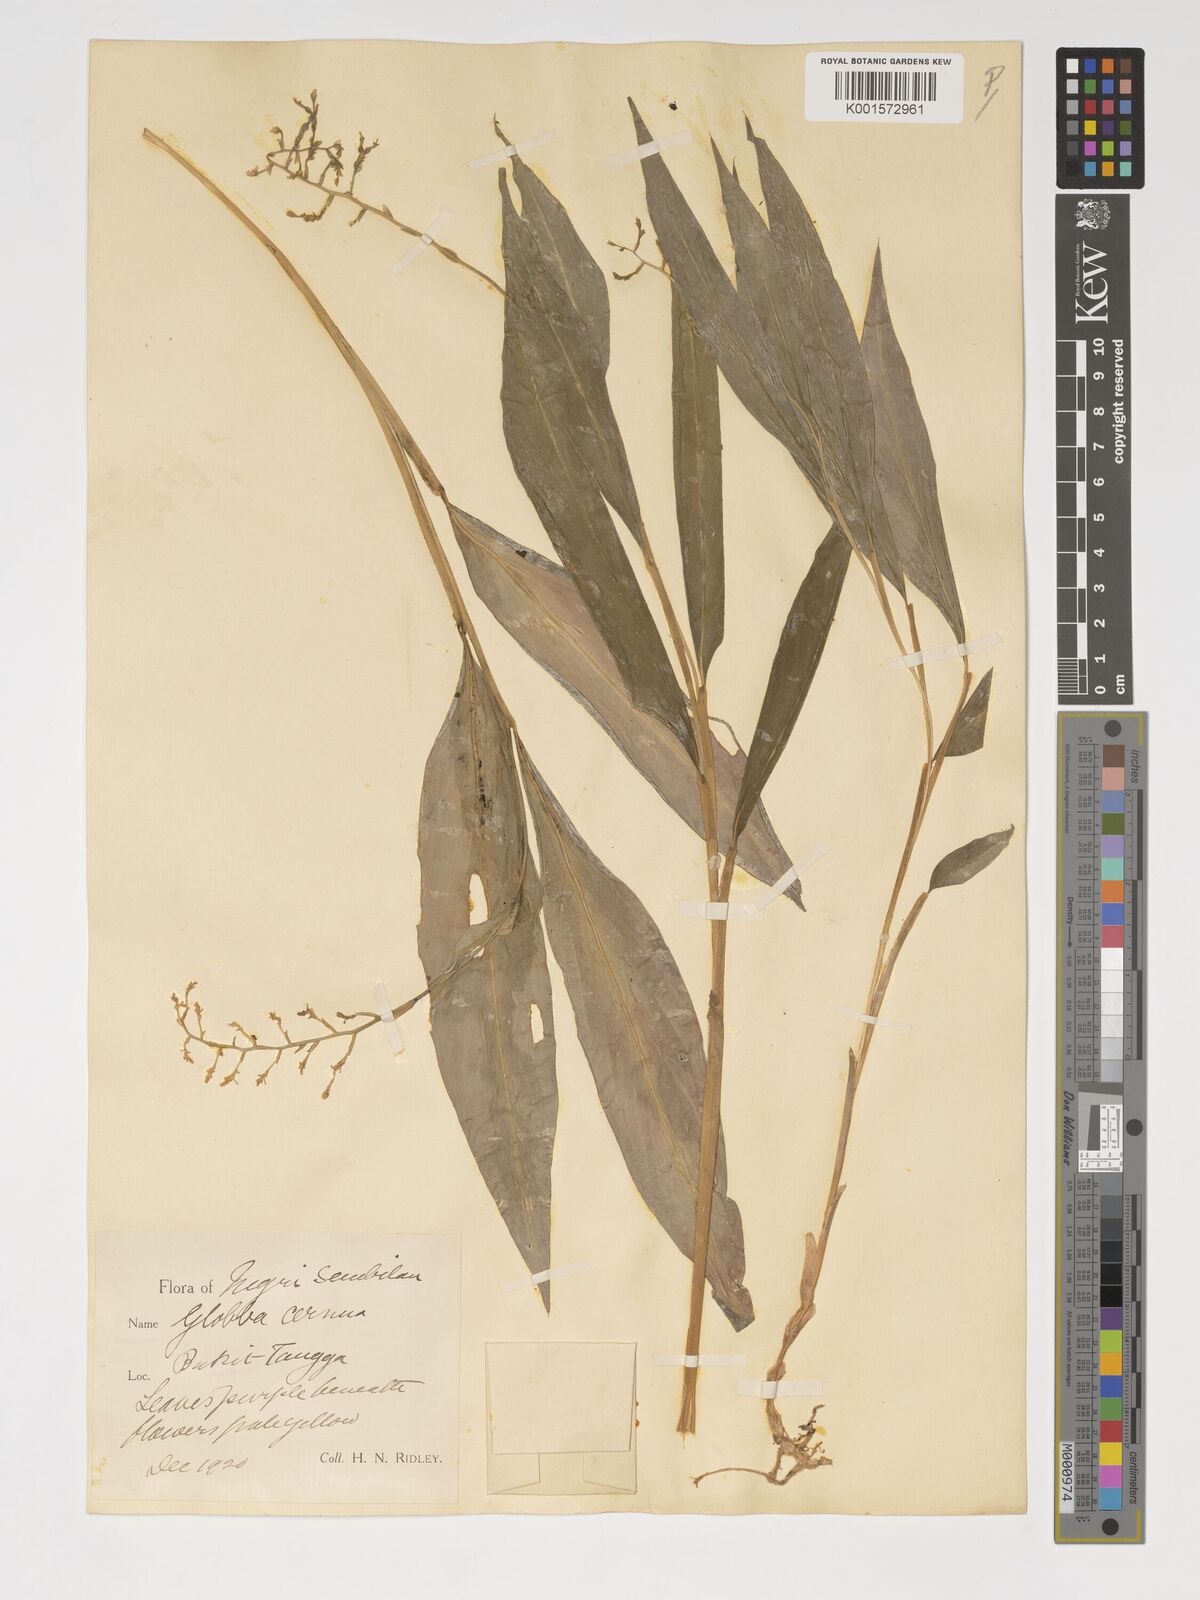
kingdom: Plantae
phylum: Tracheophyta
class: Liliopsida
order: Zingiberales
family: Zingiberaceae
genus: Globba
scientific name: Globba cernua
